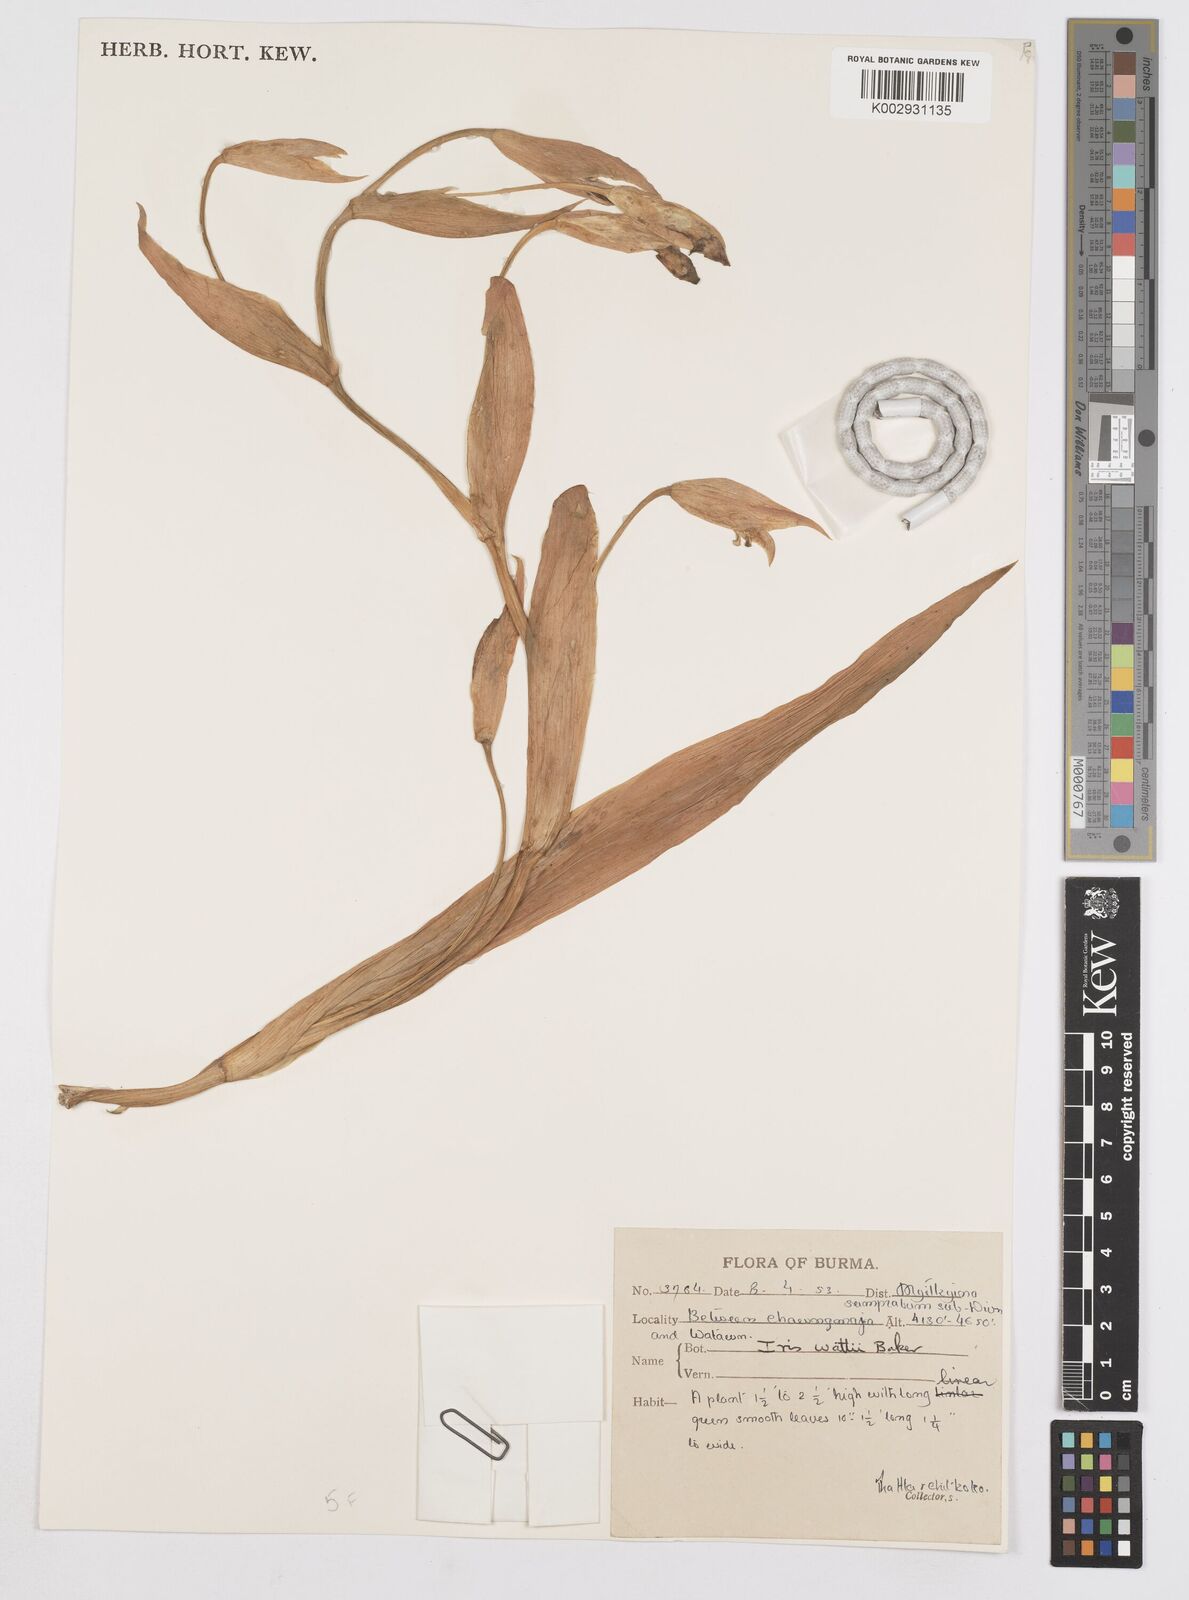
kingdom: Plantae
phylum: Tracheophyta
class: Liliopsida
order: Asparagales
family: Iridaceae
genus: Iris
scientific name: Iris wattii
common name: Fan-shape iris
